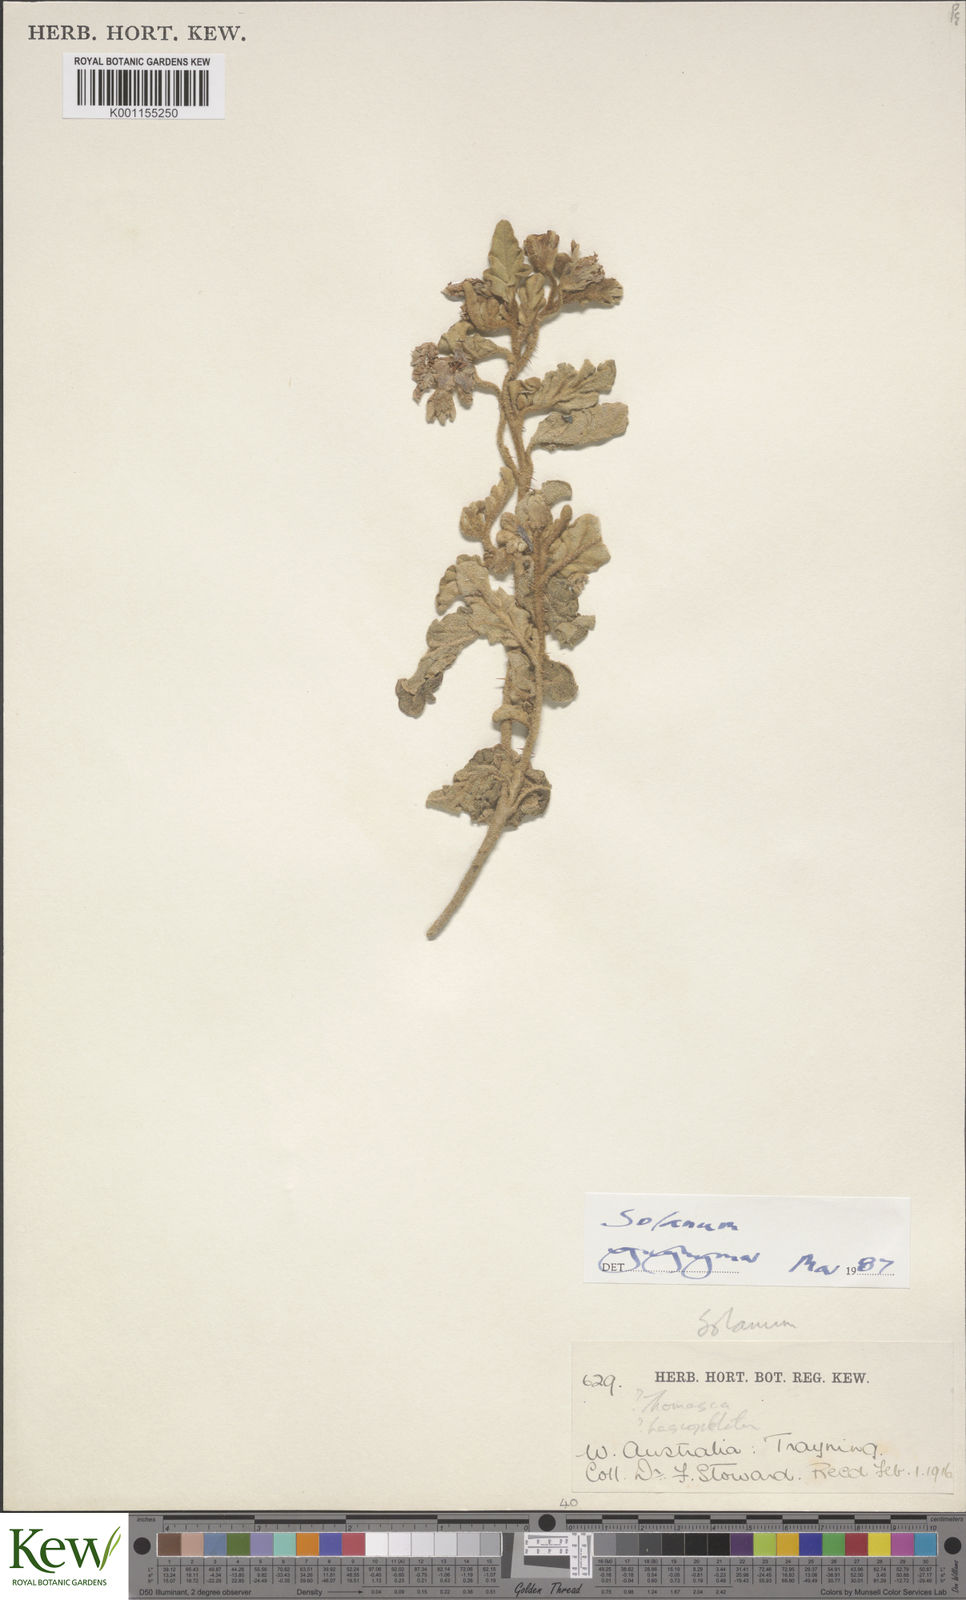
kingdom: Plantae
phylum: Tracheophyta
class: Magnoliopsida
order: Solanales
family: Solanaceae
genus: Solanum
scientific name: Solanum
